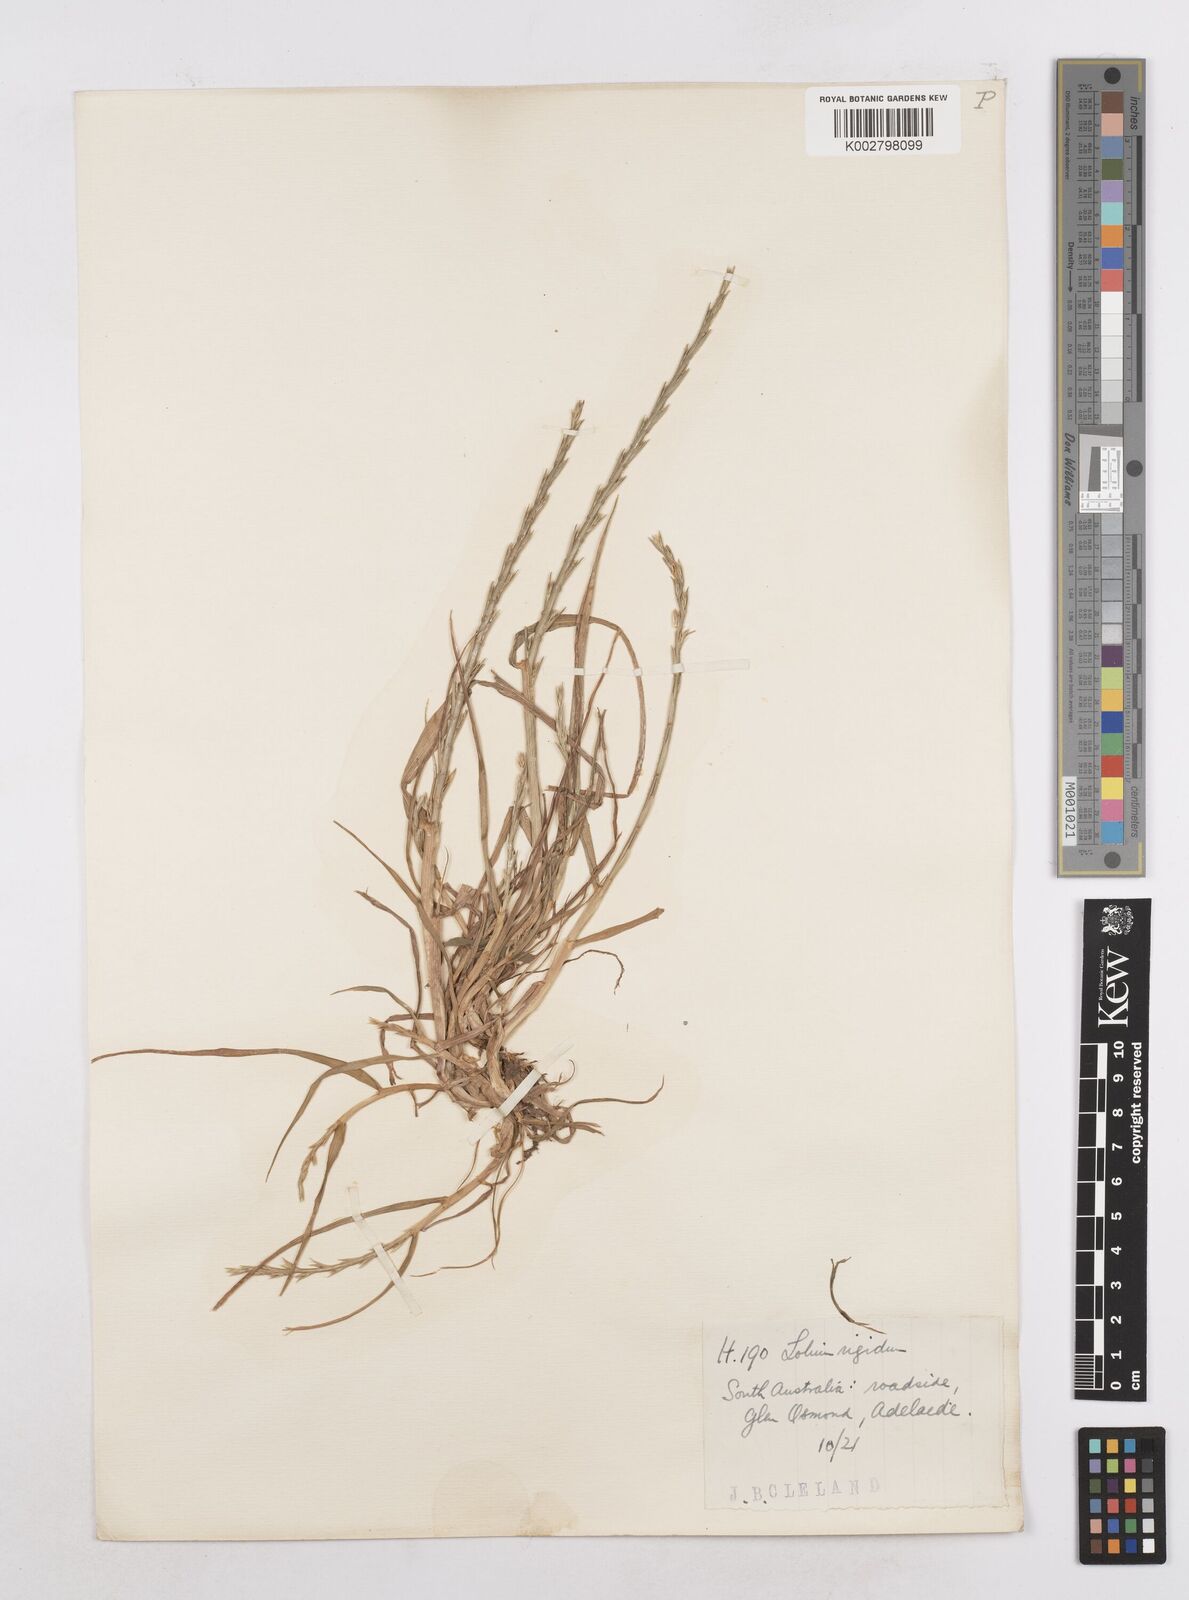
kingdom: Plantae
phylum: Tracheophyta
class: Liliopsida
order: Poales
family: Poaceae
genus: Lolium
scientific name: Lolium
